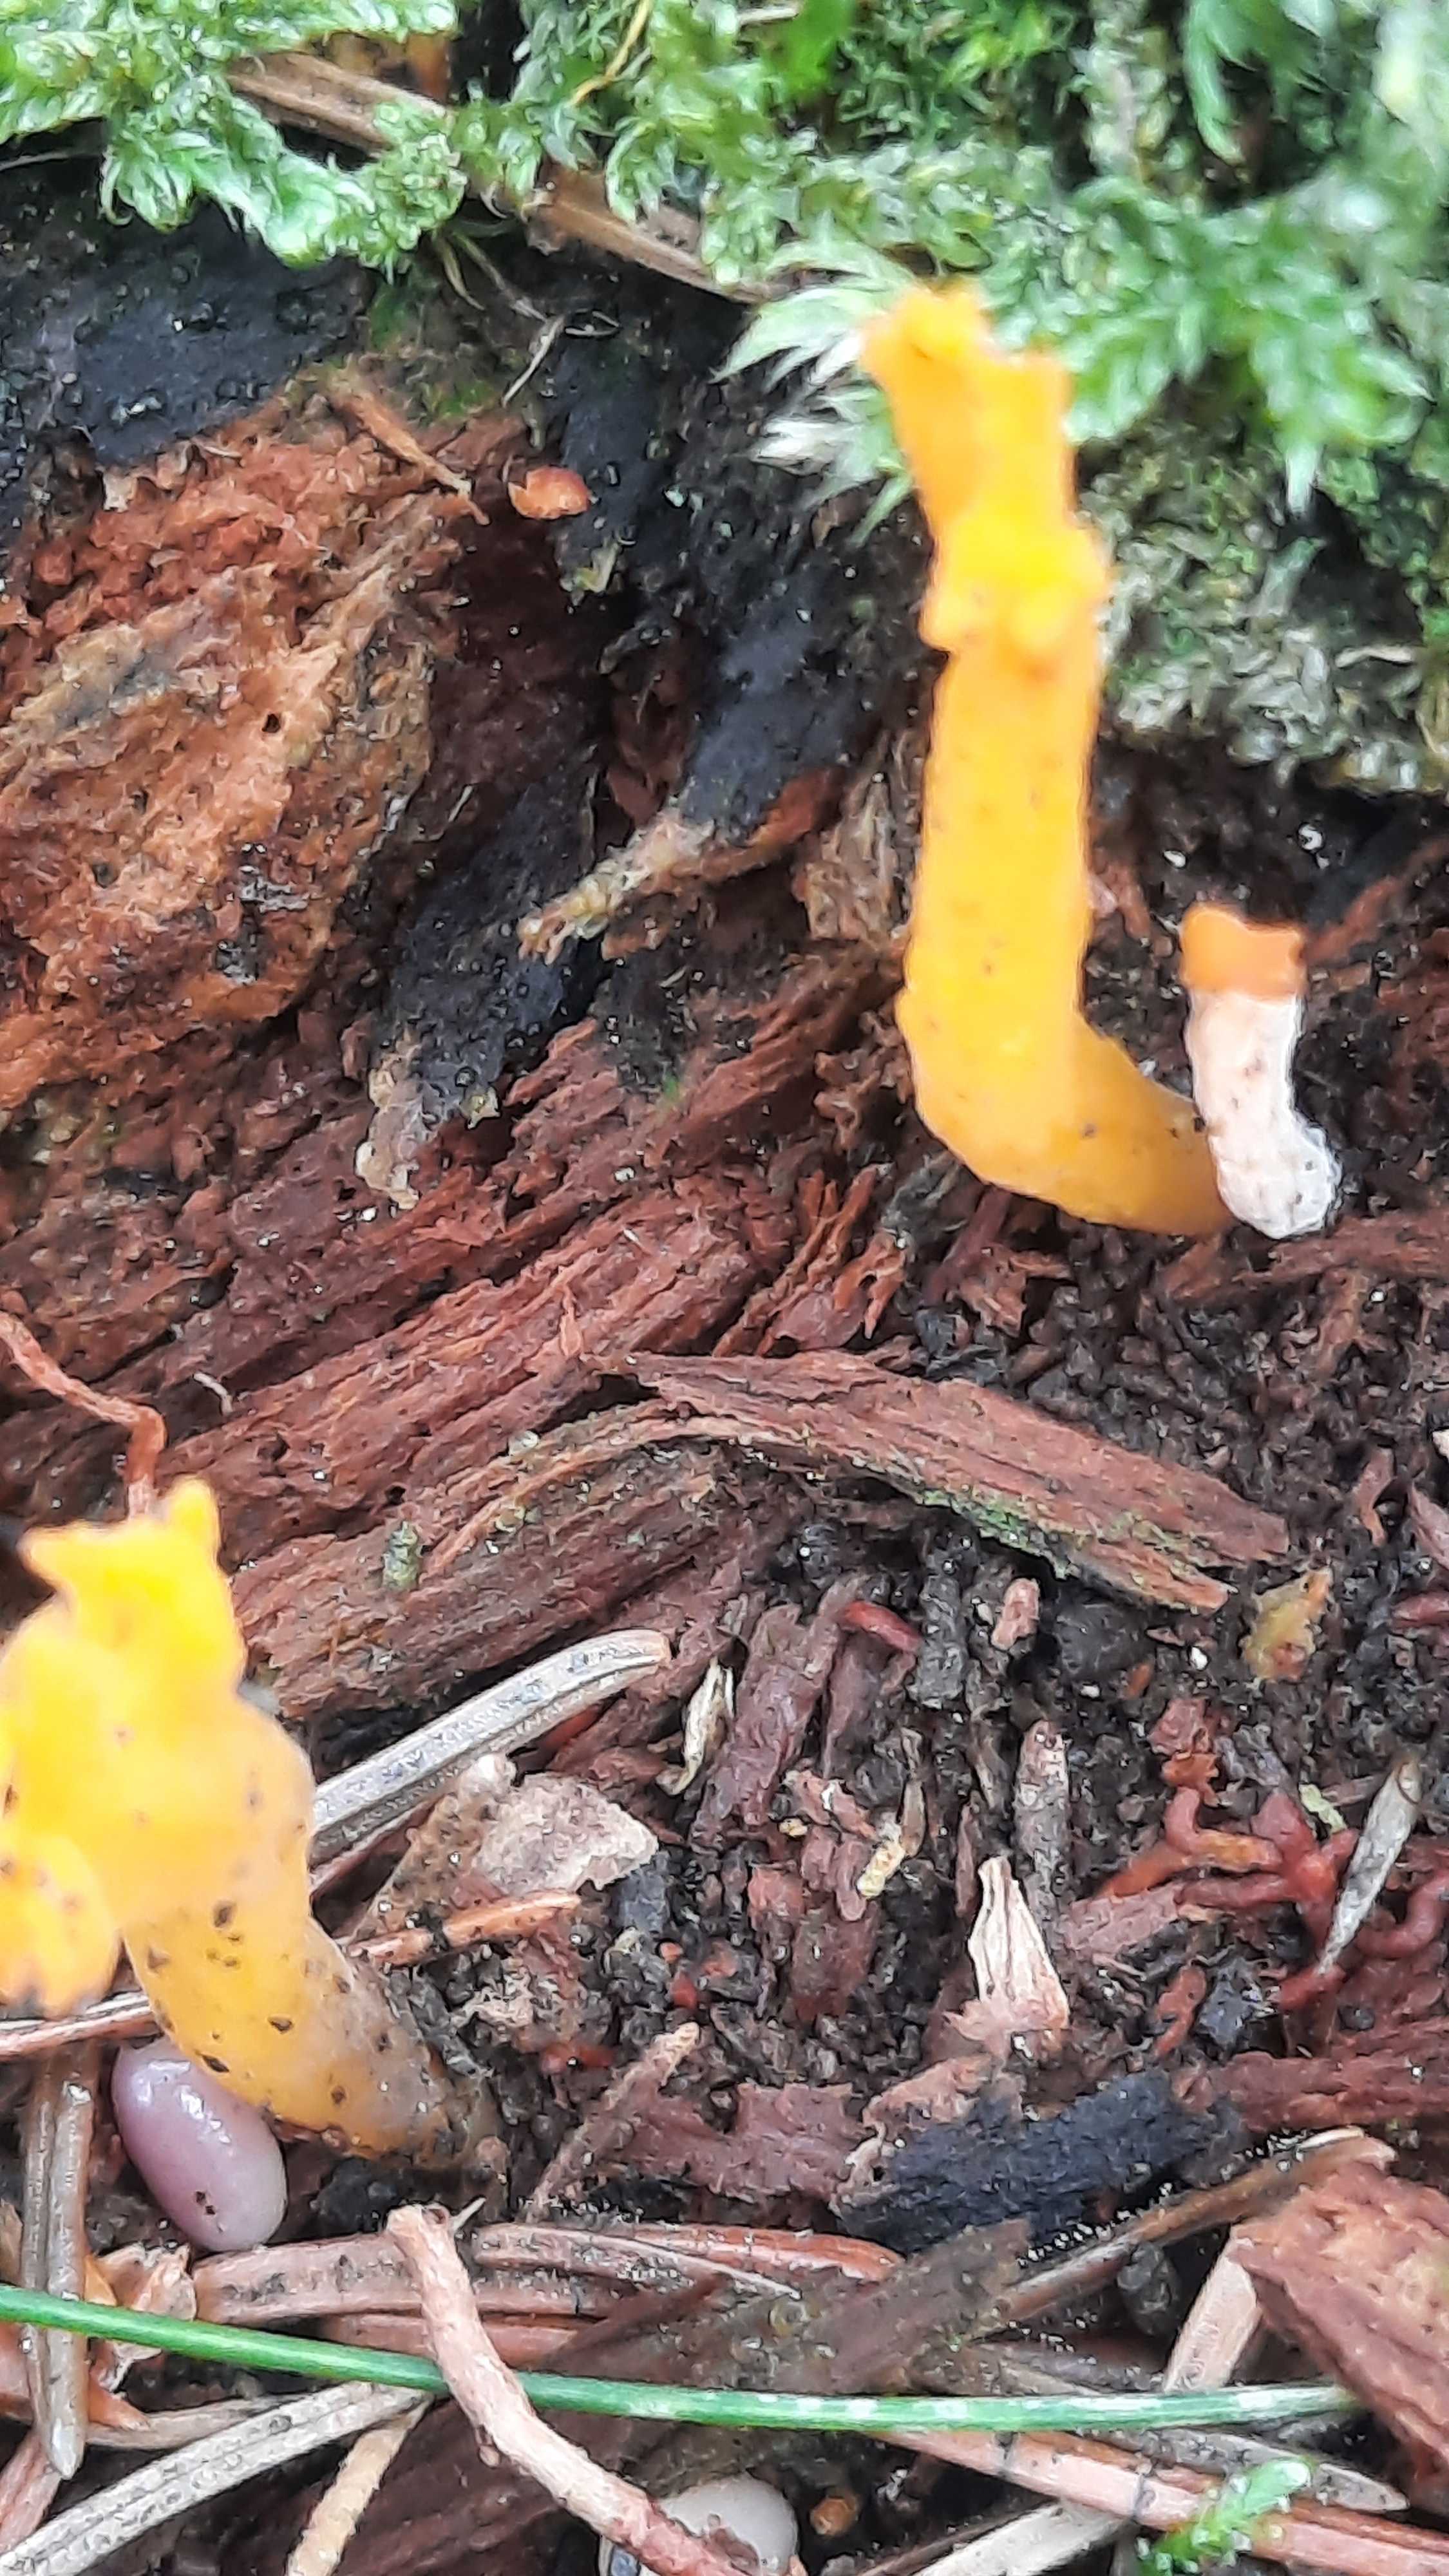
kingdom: Fungi
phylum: Basidiomycota
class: Dacrymycetes
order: Dacrymycetales
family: Dacrymycetaceae
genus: Calocera
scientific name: Calocera viscosa
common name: almindelig guldgaffel
